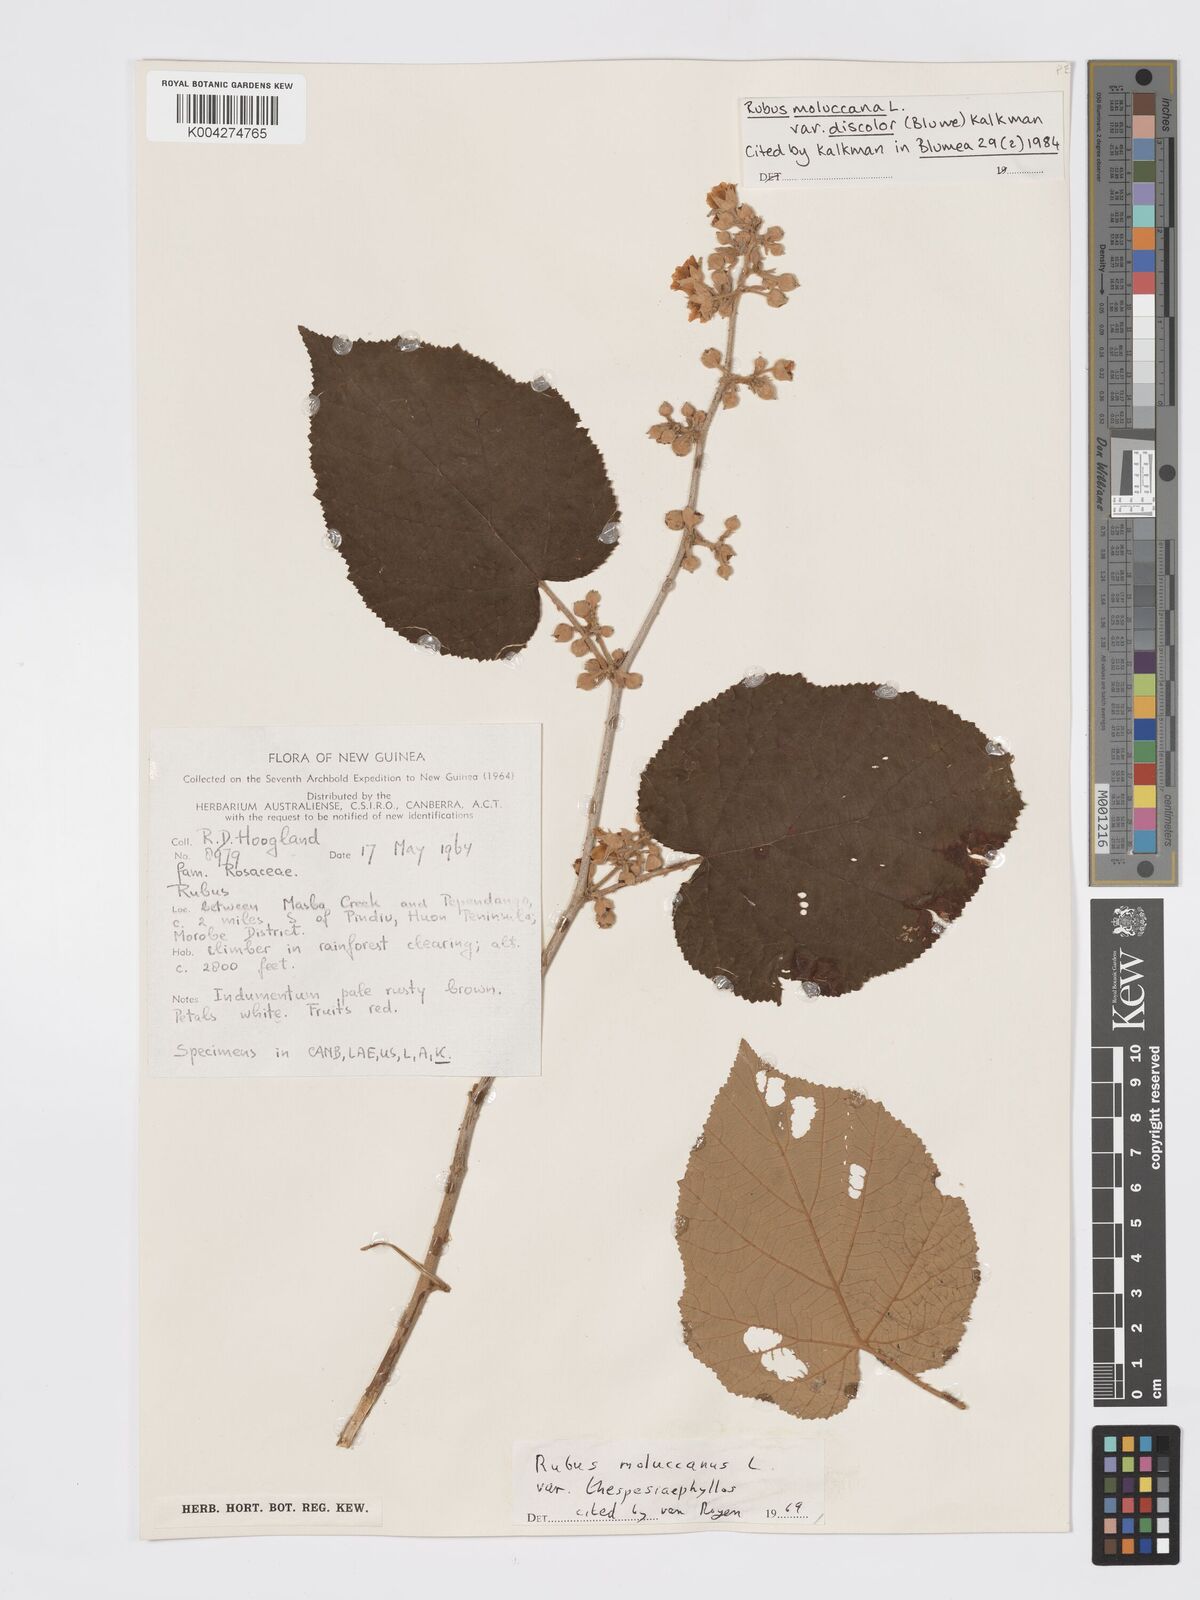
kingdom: Plantae
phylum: Tracheophyta
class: Magnoliopsida
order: Rosales
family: Rosaceae
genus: Rubus
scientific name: Rubus moluccanus
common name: Wild raspberry
